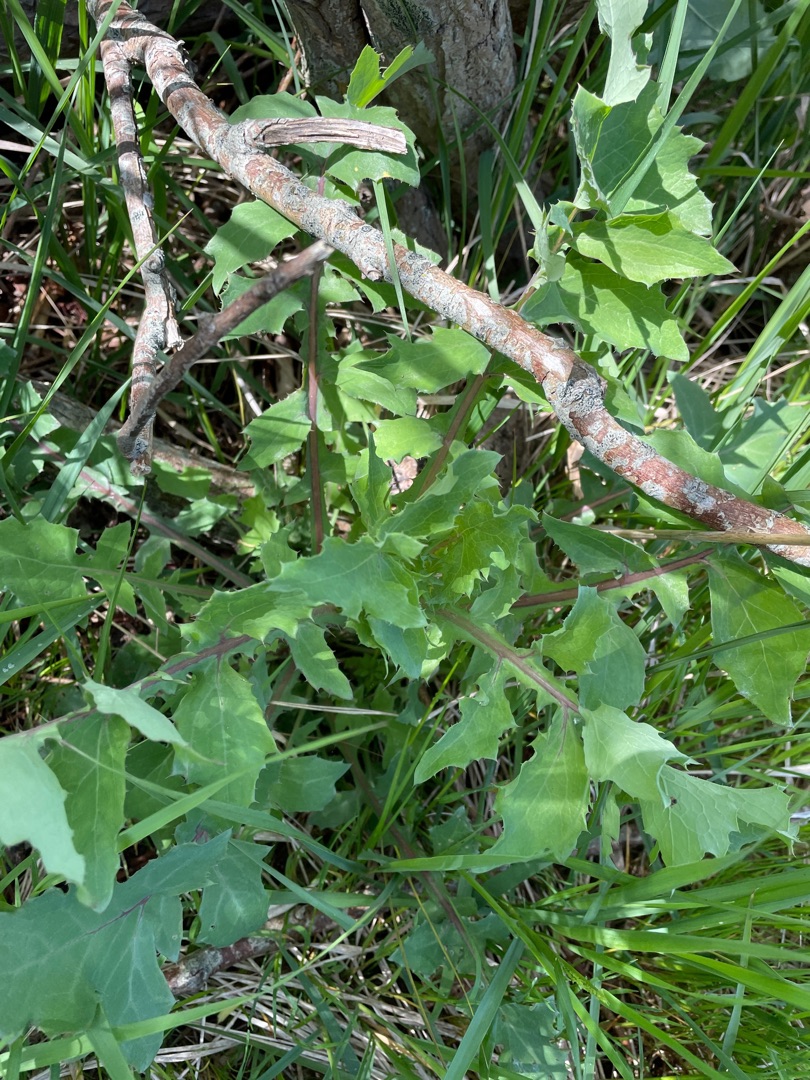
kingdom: Plantae
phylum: Tracheophyta
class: Magnoliopsida
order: Asterales
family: Asteraceae
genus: Sonchus
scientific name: Sonchus oleraceus
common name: Almindelig svinemælk
